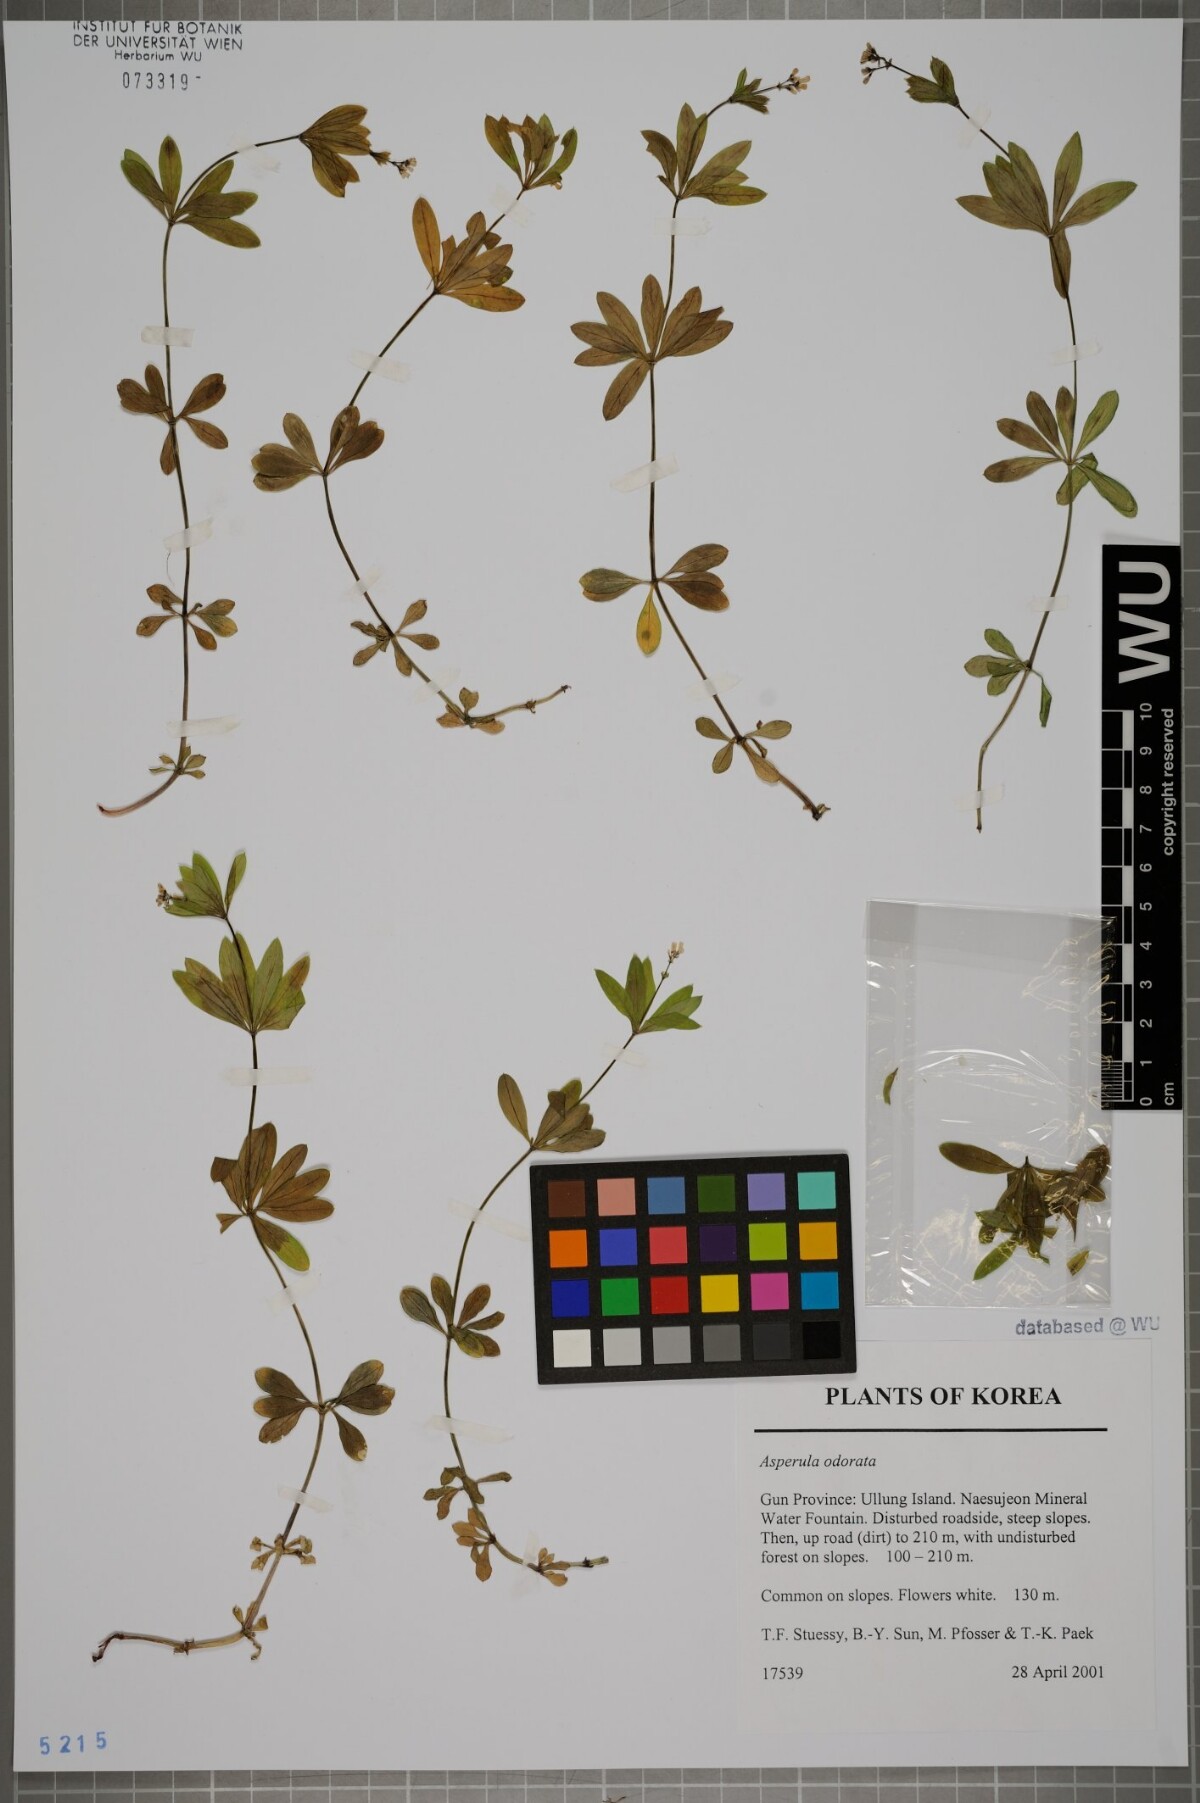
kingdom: Plantae
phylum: Tracheophyta
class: Magnoliopsida
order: Gentianales
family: Rubiaceae
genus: Galium
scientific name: Galium odoratum
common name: Sweet woodruff
